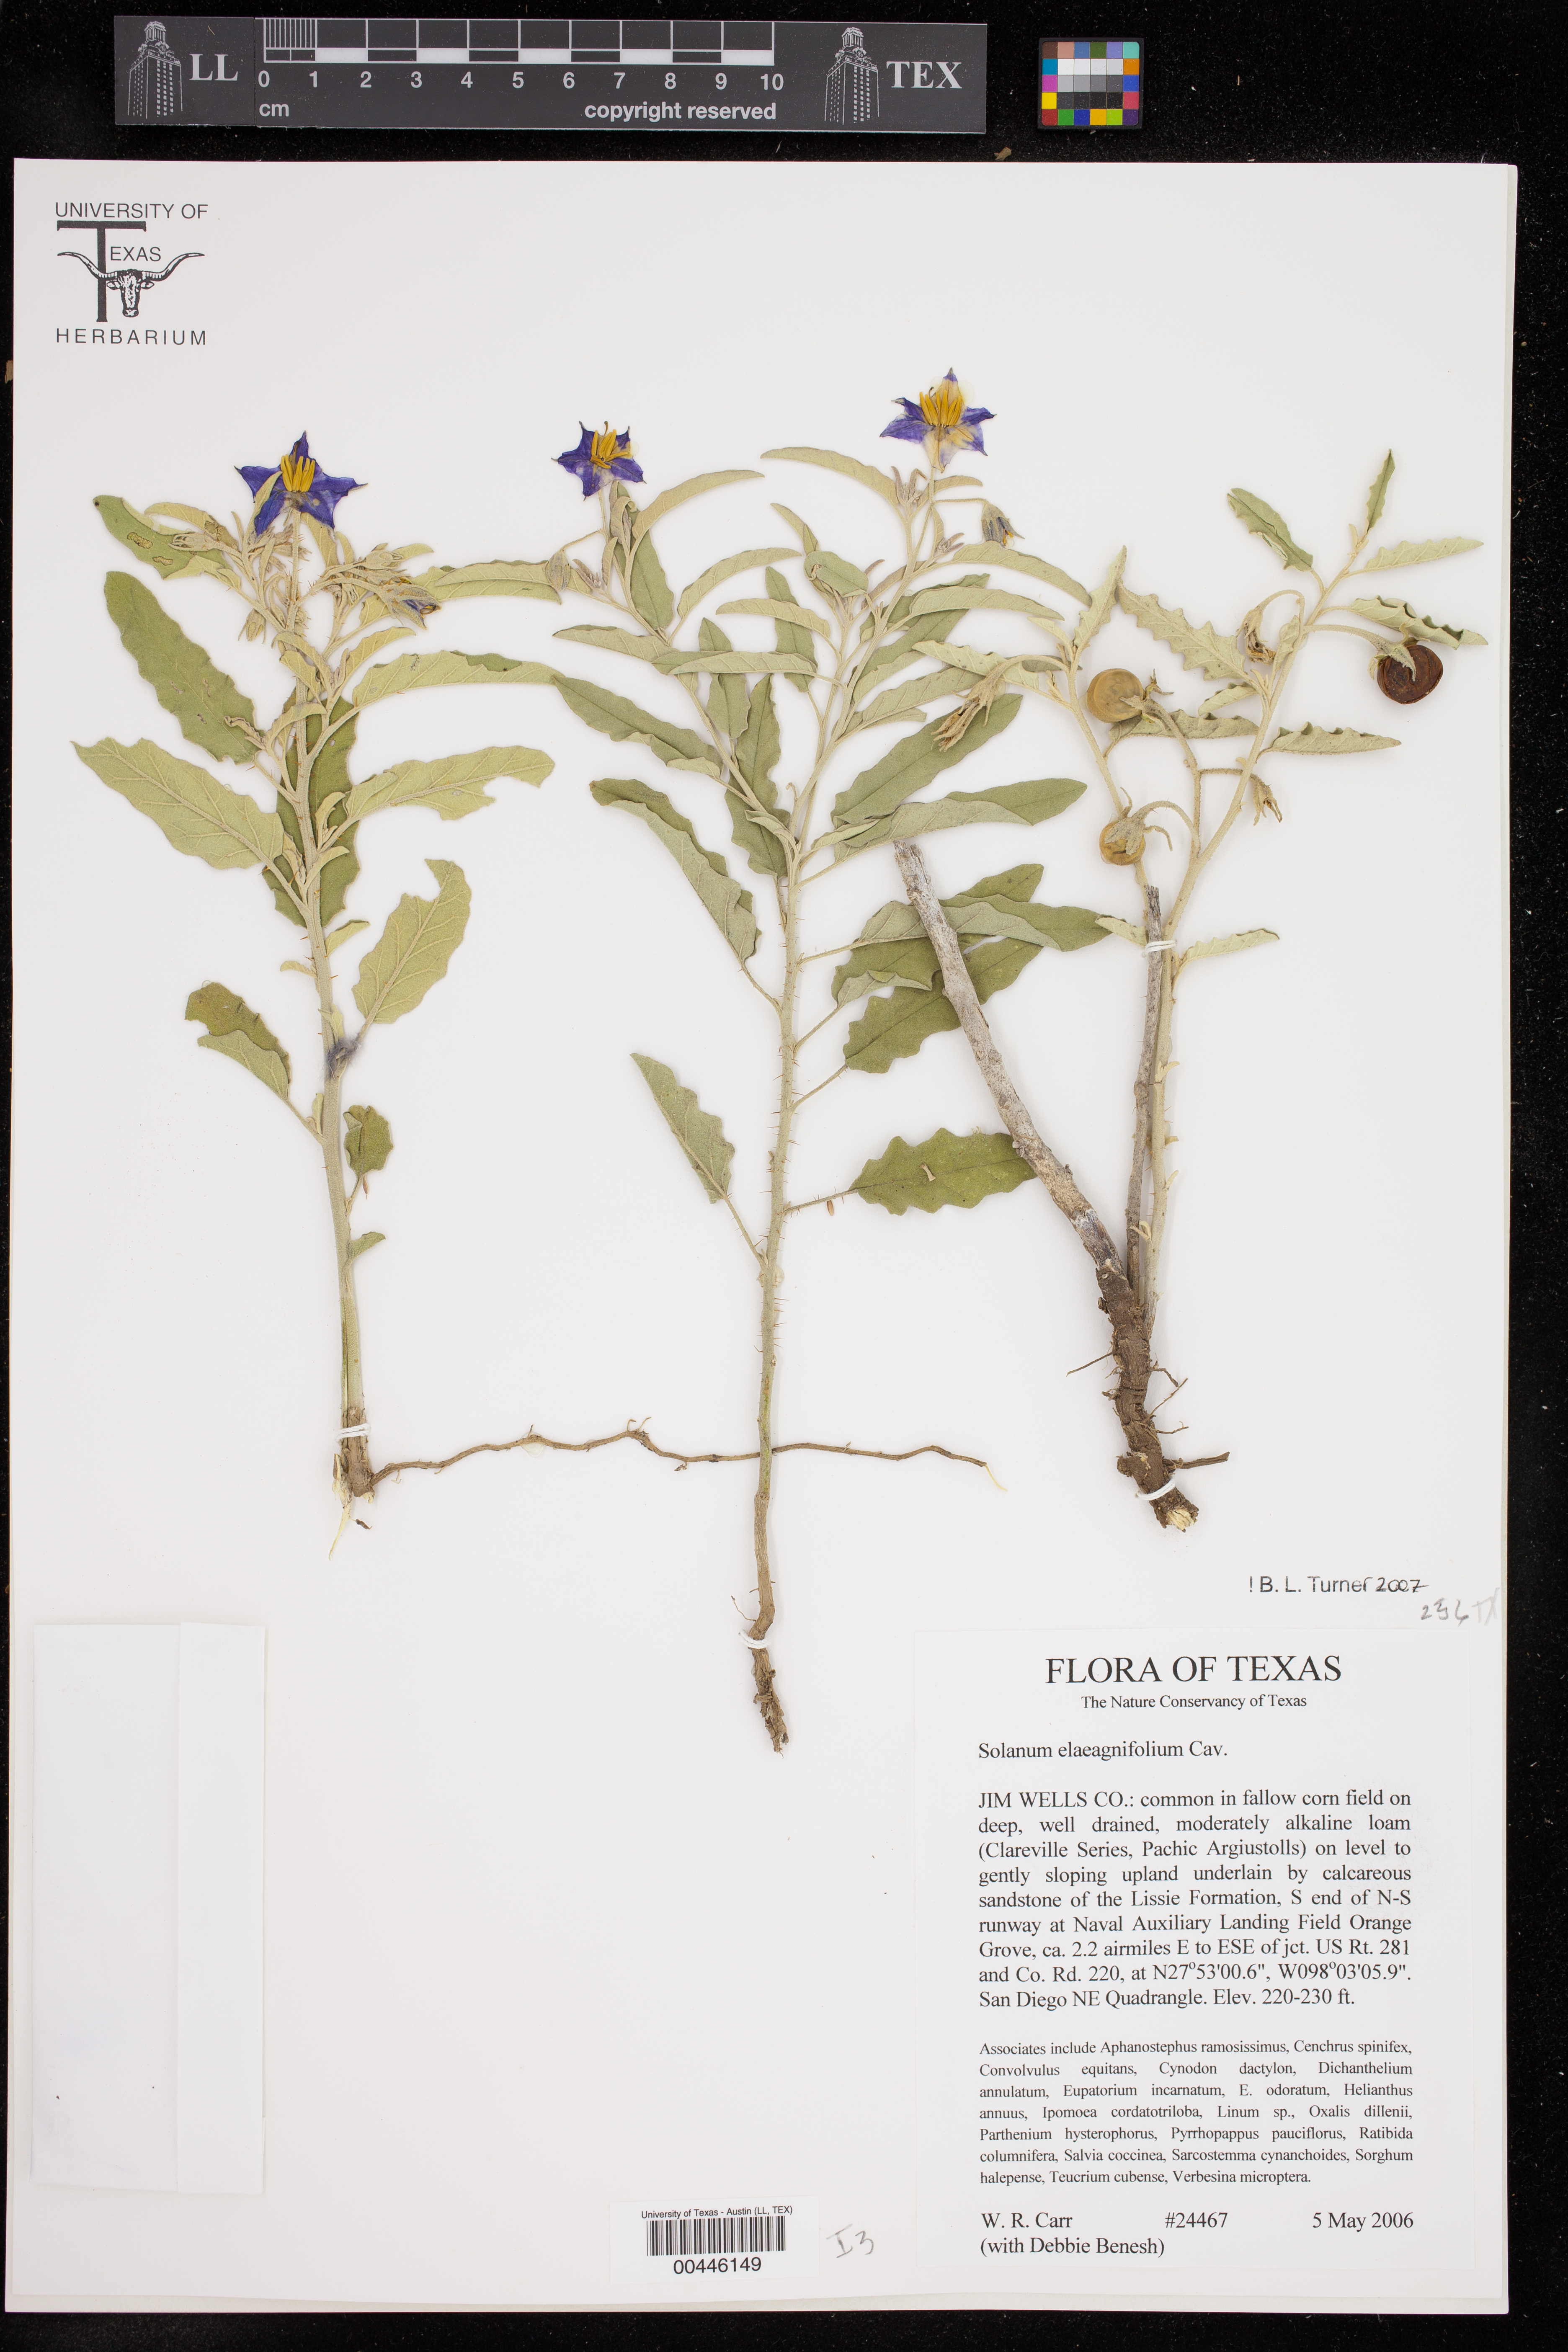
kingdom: Plantae
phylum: Tracheophyta
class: Magnoliopsida
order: Solanales
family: Solanaceae
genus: Solanum
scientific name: Solanum elaeagnifolium
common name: Silverleaf nightshade
